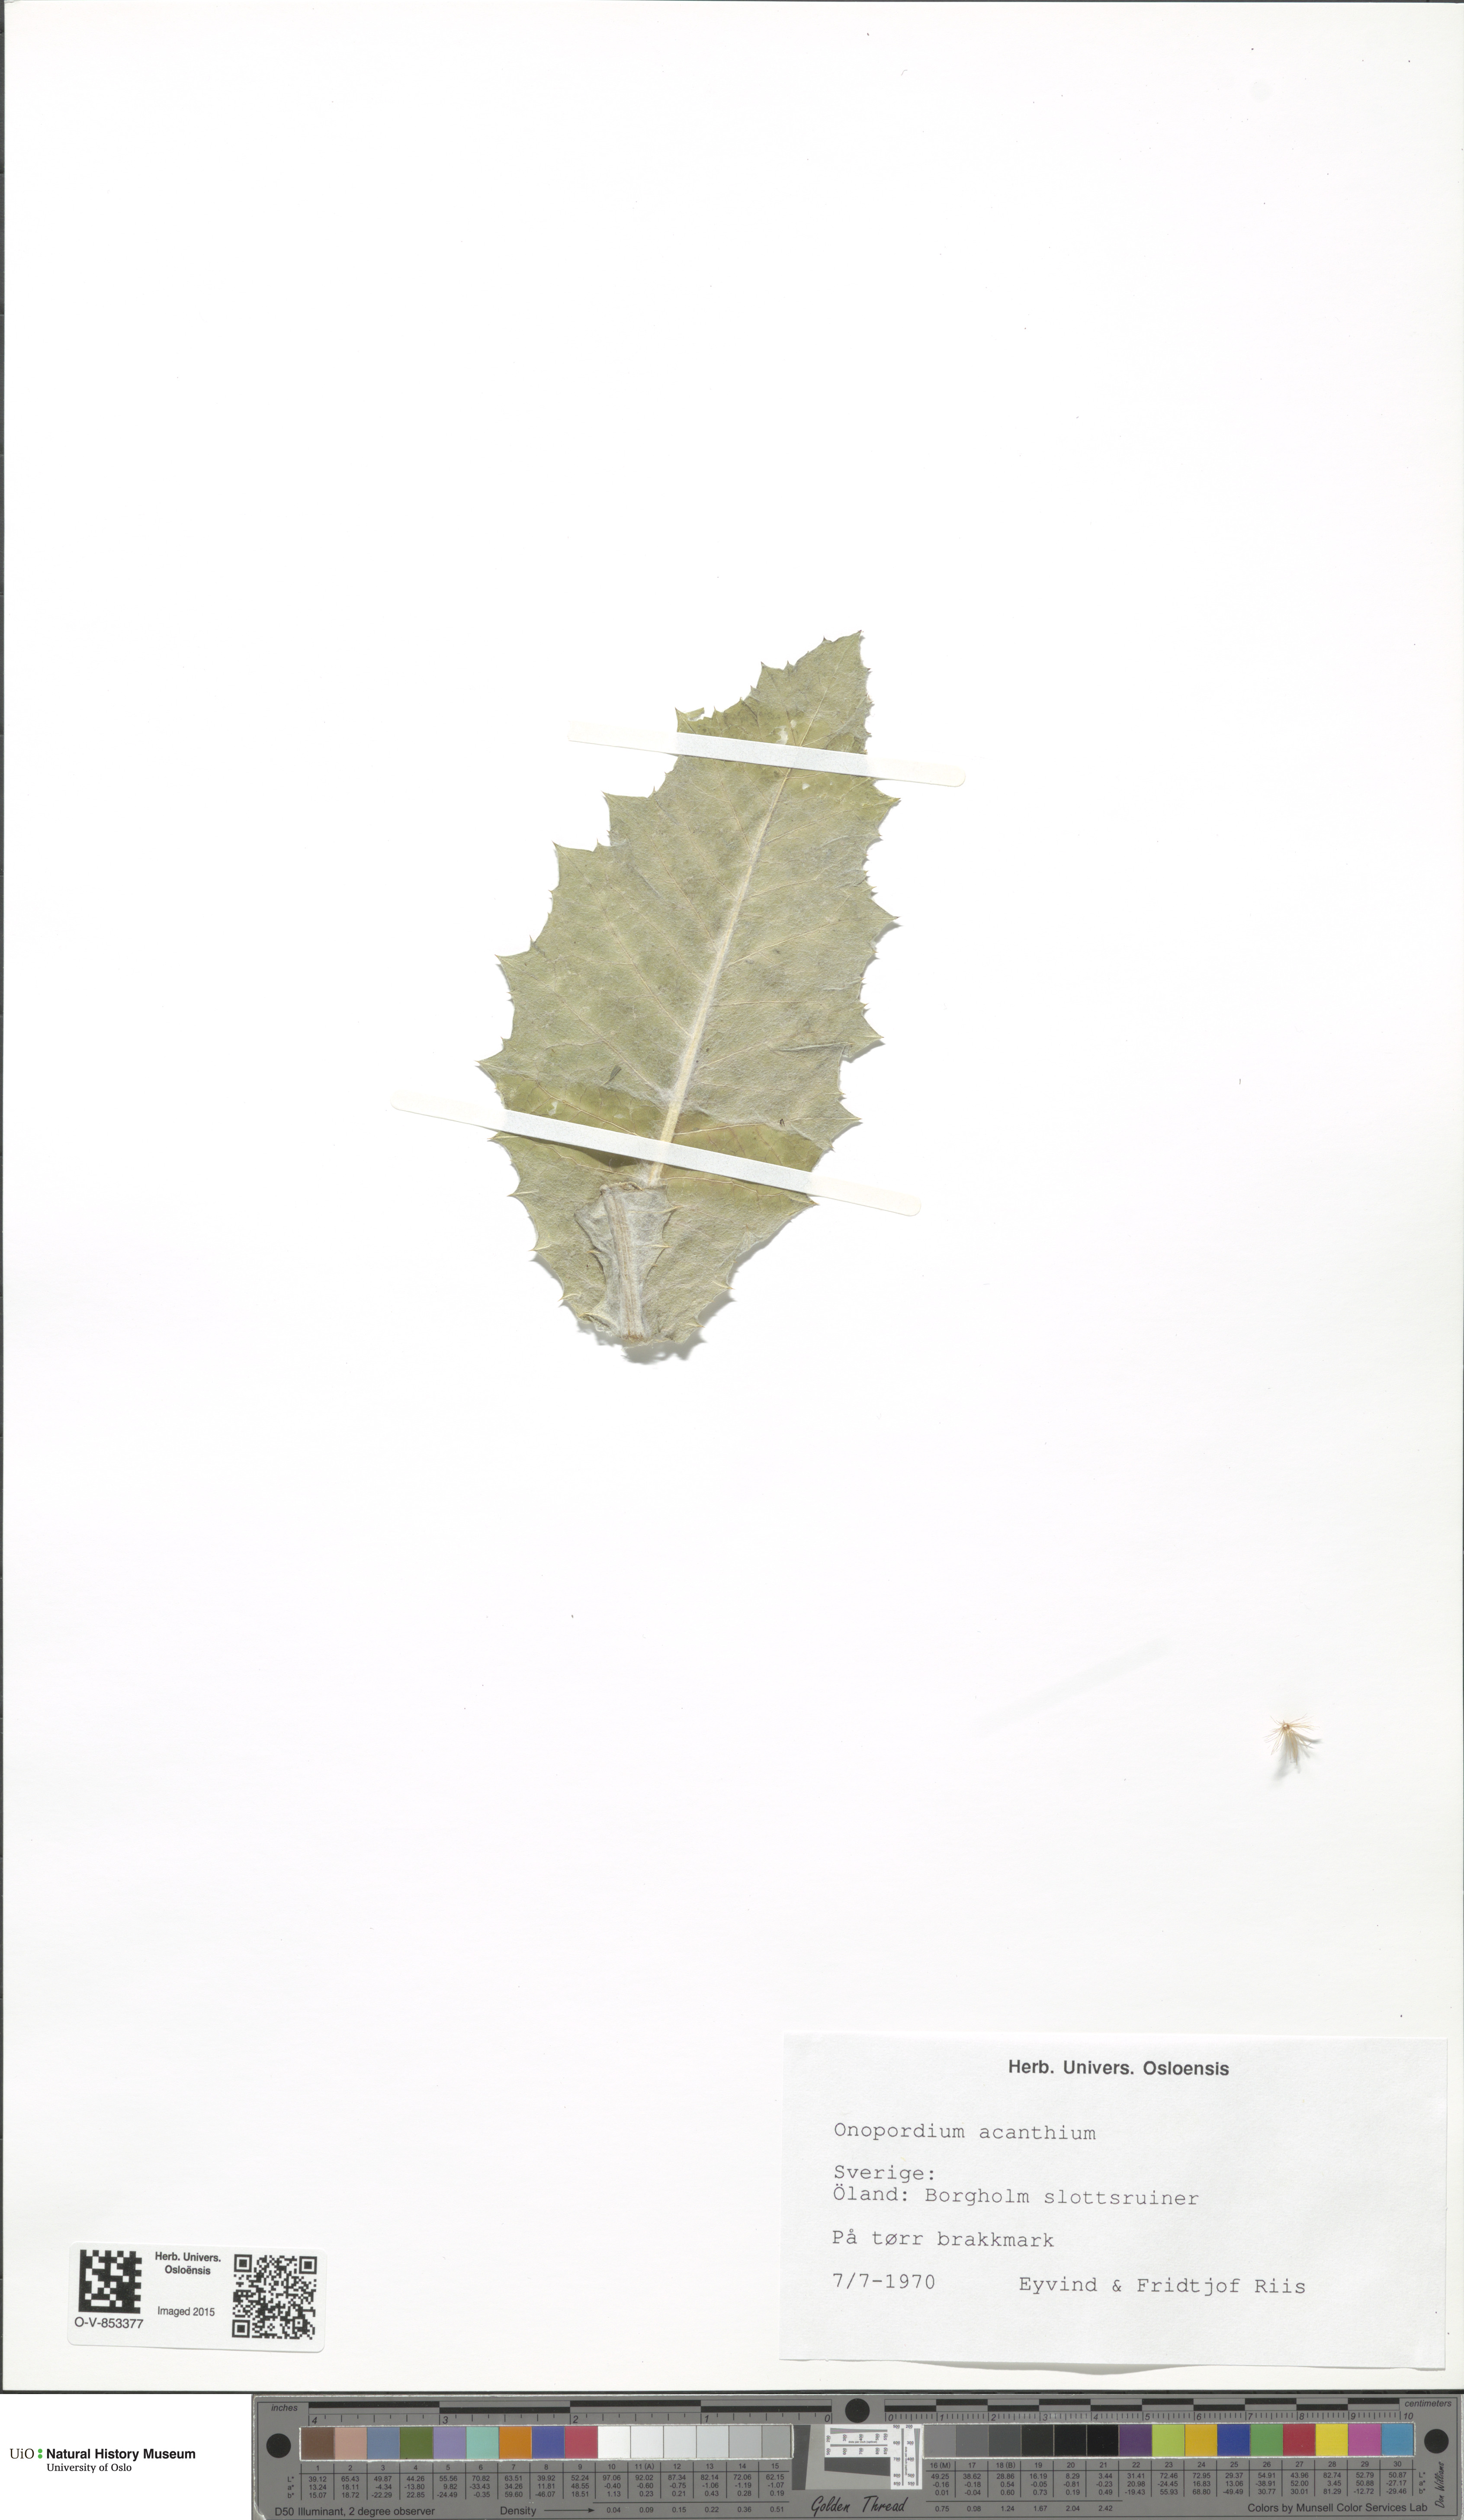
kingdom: Plantae
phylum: Tracheophyta
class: Magnoliopsida
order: Asterales
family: Asteraceae
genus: Onopordum
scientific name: Onopordum acanthium
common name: Scotch thistle
